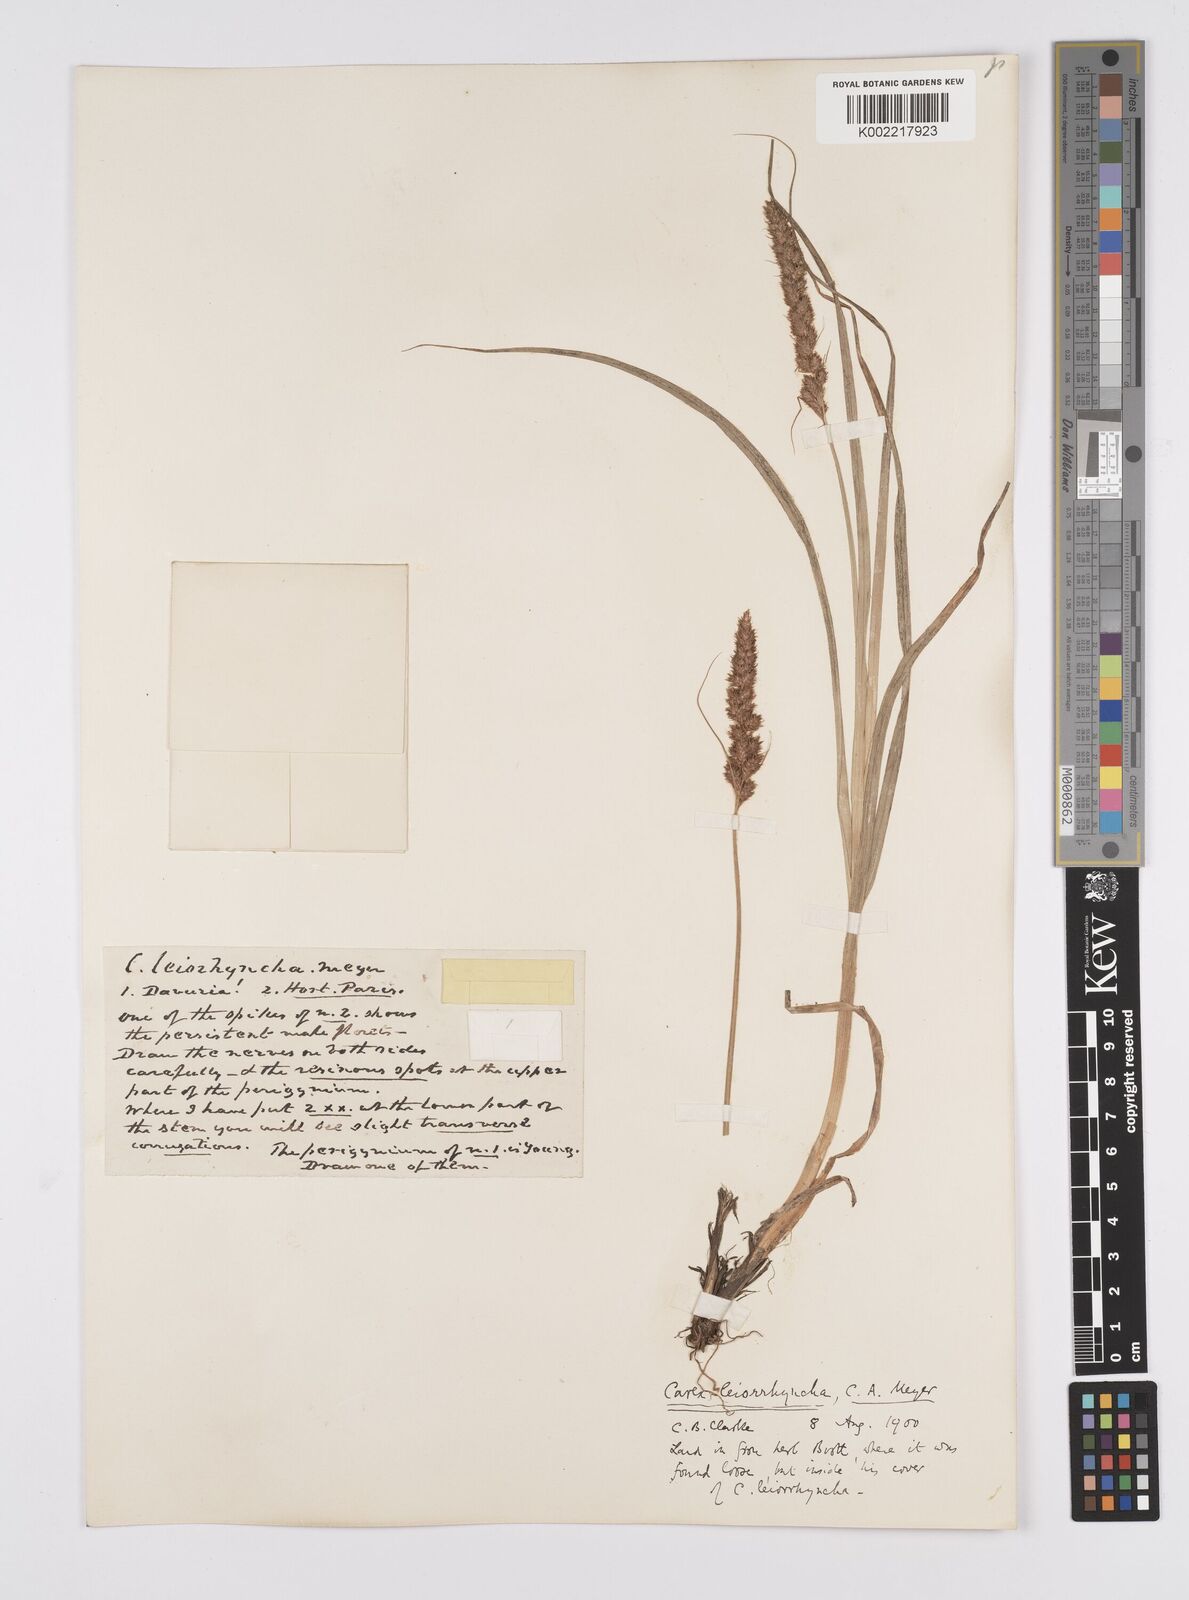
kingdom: Plantae
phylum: Tracheophyta
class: Liliopsida
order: Poales
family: Cyperaceae
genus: Carex
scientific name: Carex leiorhyncha
